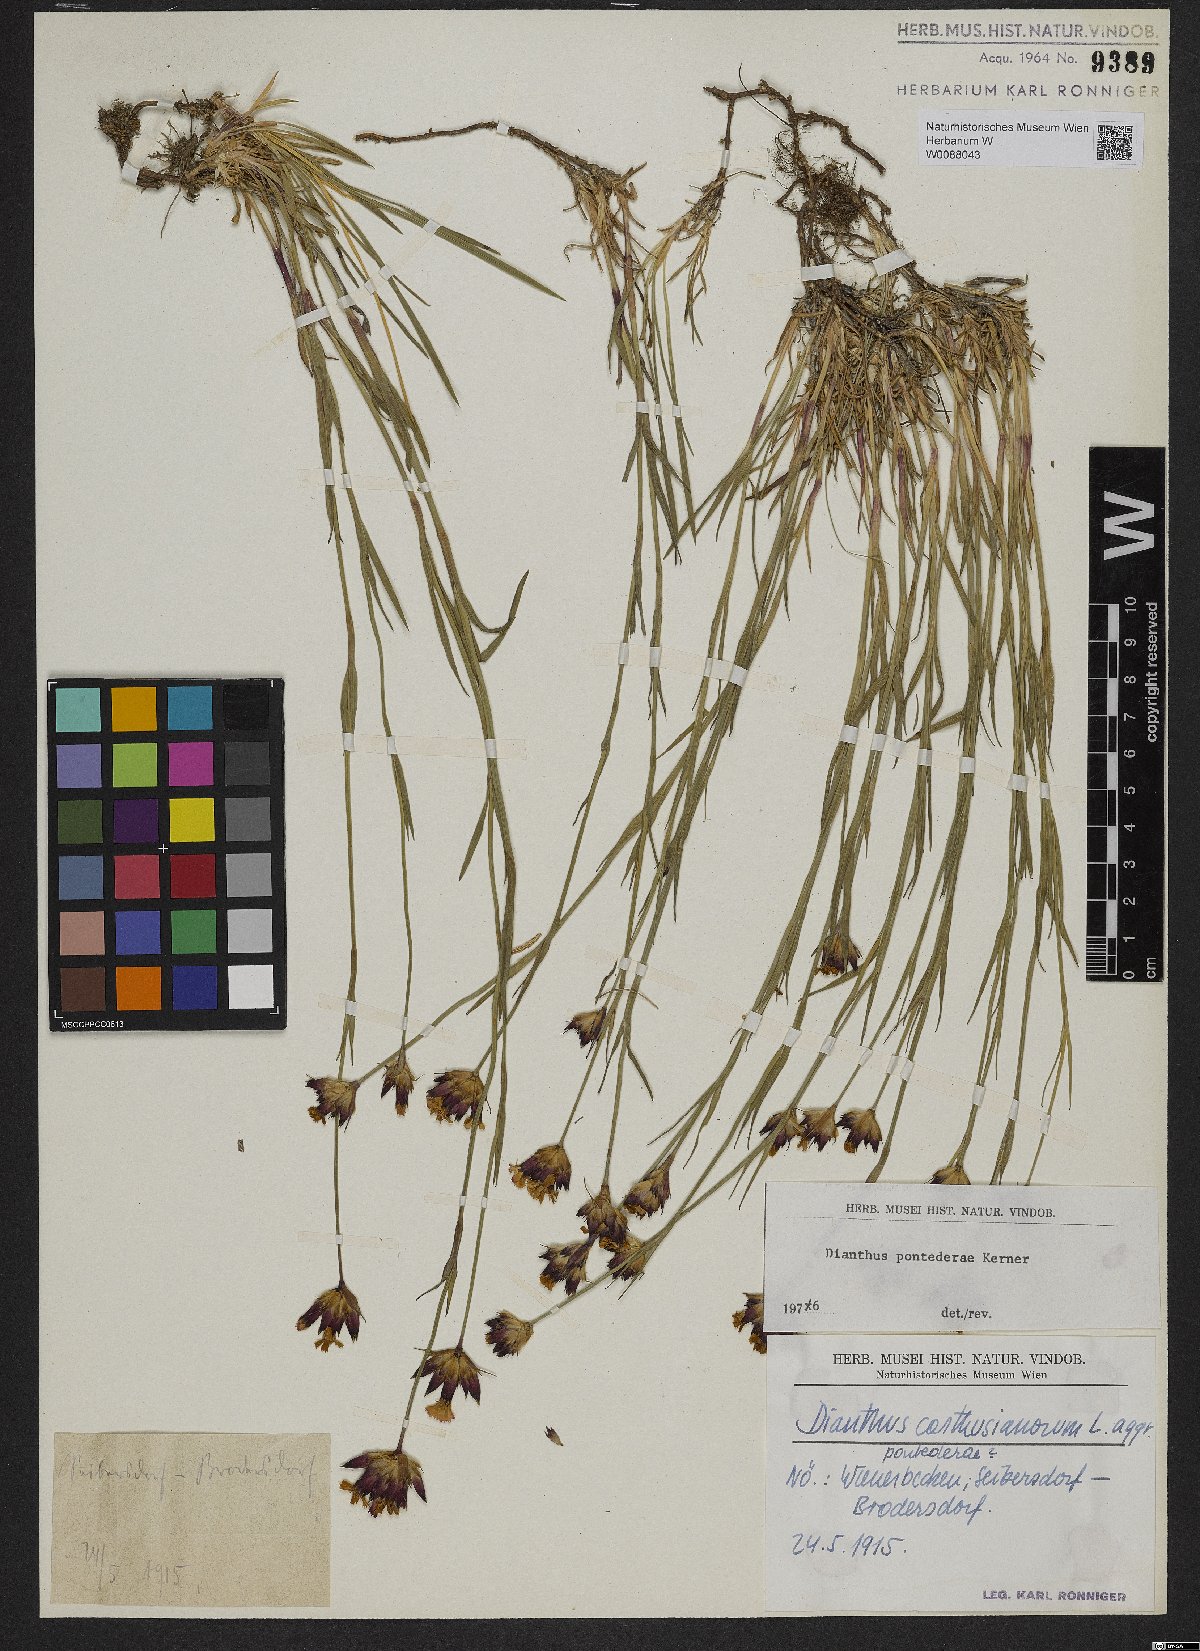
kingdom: Plantae
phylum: Tracheophyta
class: Magnoliopsida
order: Caryophyllales
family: Caryophyllaceae
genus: Dianthus
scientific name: Dianthus pontederae
